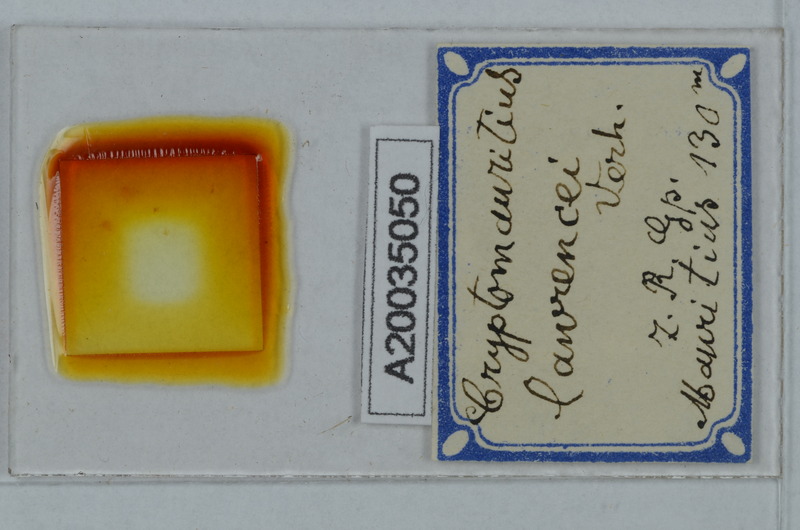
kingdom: Animalia
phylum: Arthropoda
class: Diplopoda
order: Polydesmida
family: Cryptodesmidae
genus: Cryptodesmus
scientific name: Cryptodesmus
